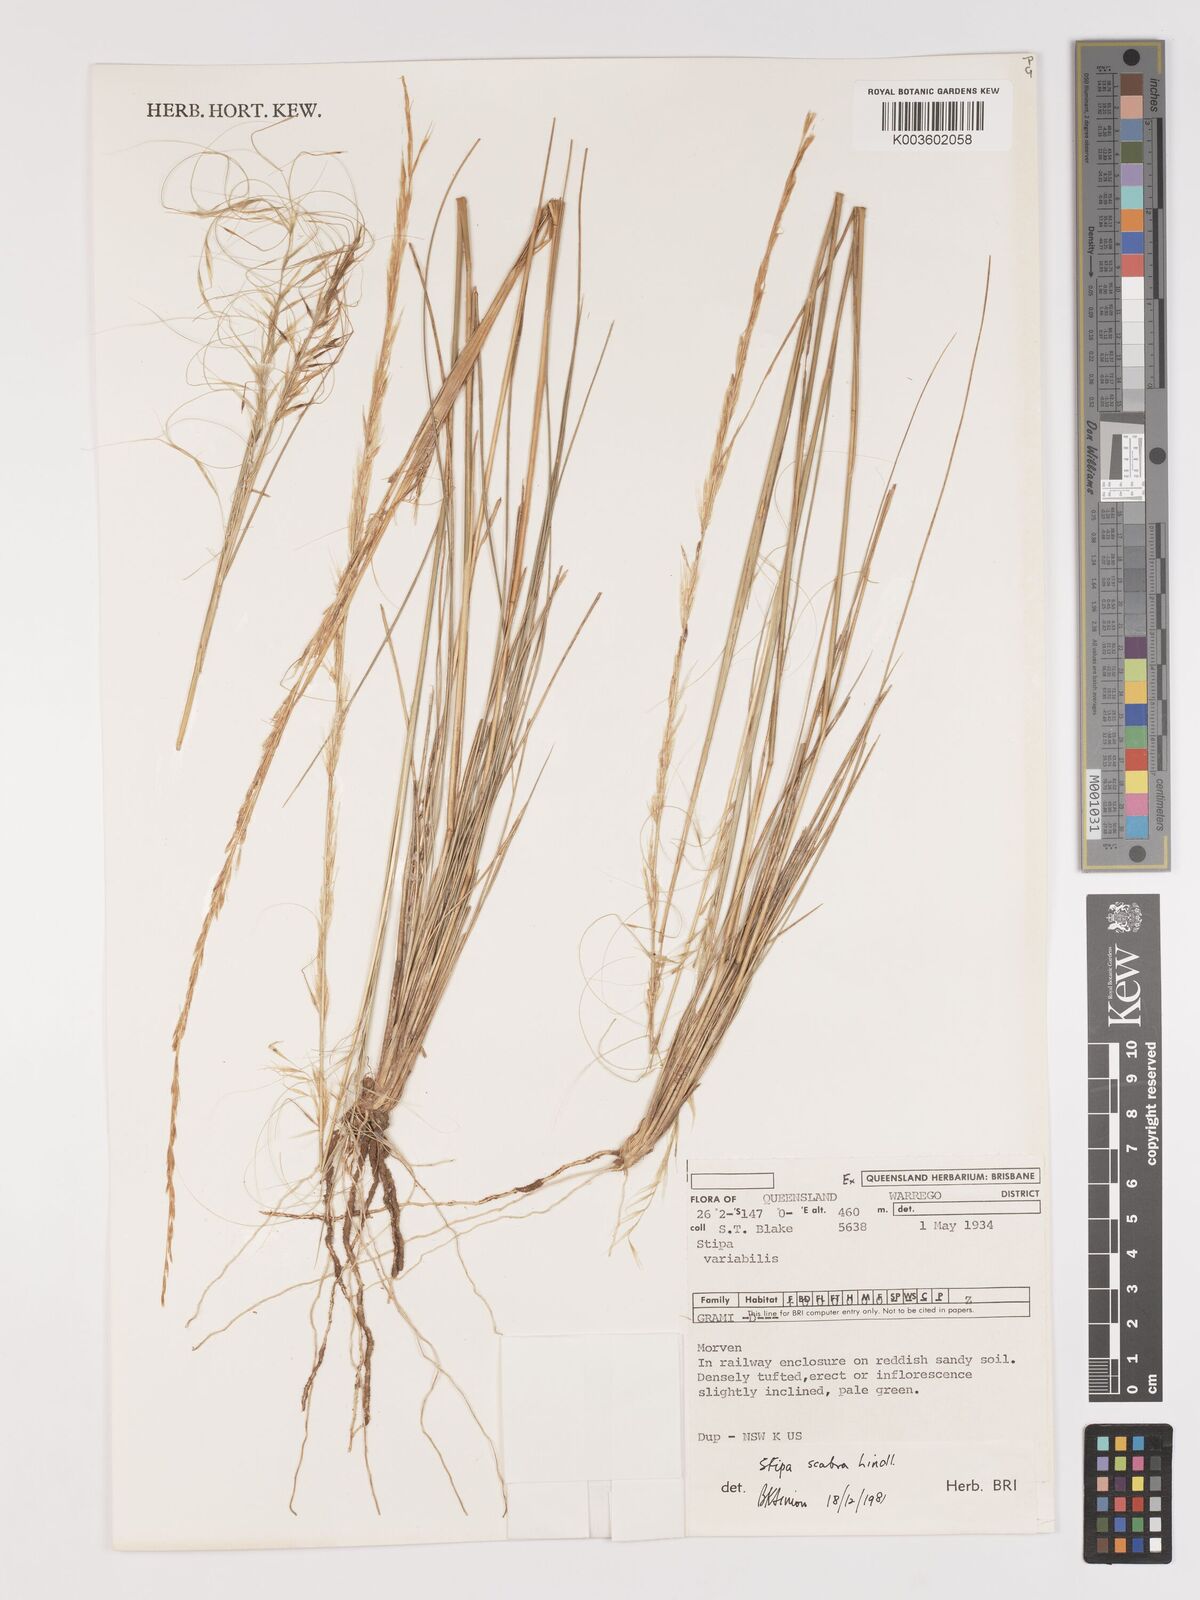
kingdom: Plantae
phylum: Tracheophyta
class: Liliopsida
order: Poales
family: Poaceae
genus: Austrostipa
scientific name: Austrostipa scabra
